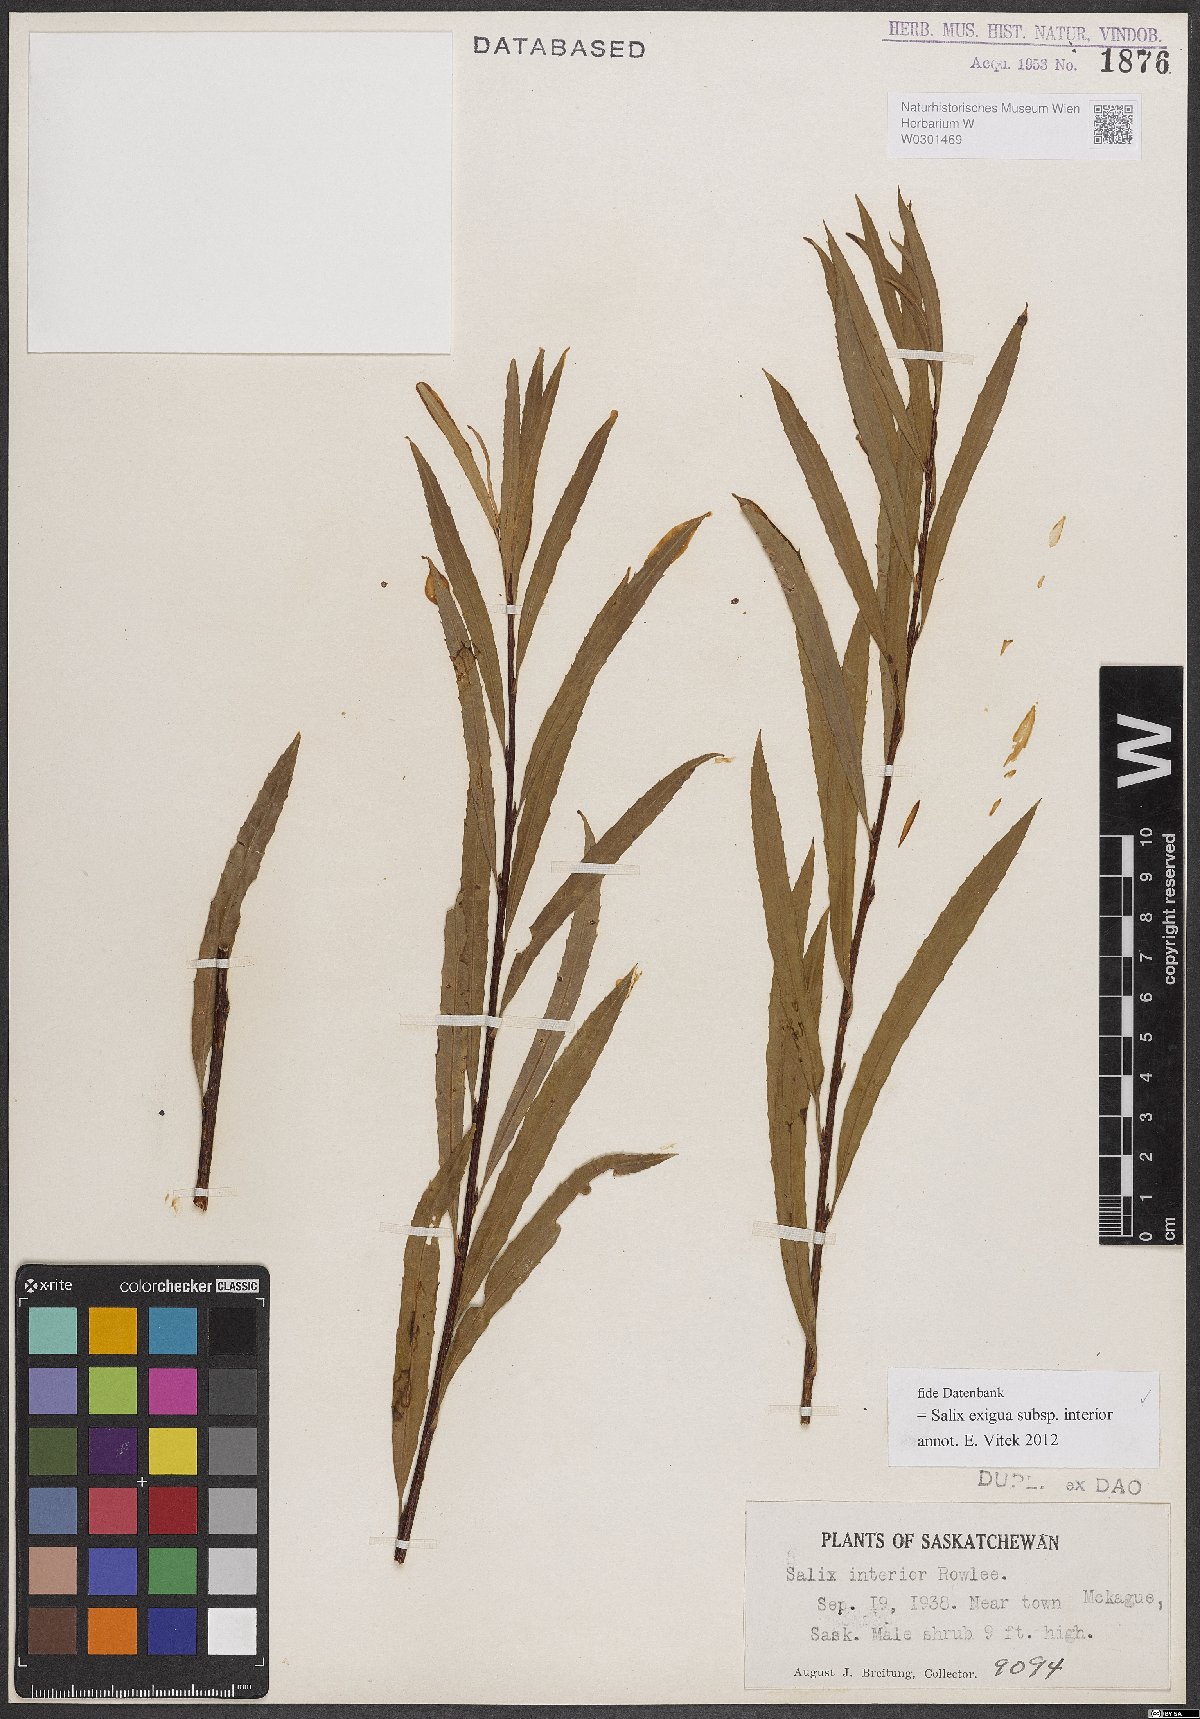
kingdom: Plantae
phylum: Tracheophyta
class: Magnoliopsida
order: Malpighiales
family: Salicaceae
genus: Salix
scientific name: Salix interior
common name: Sandbar willow
